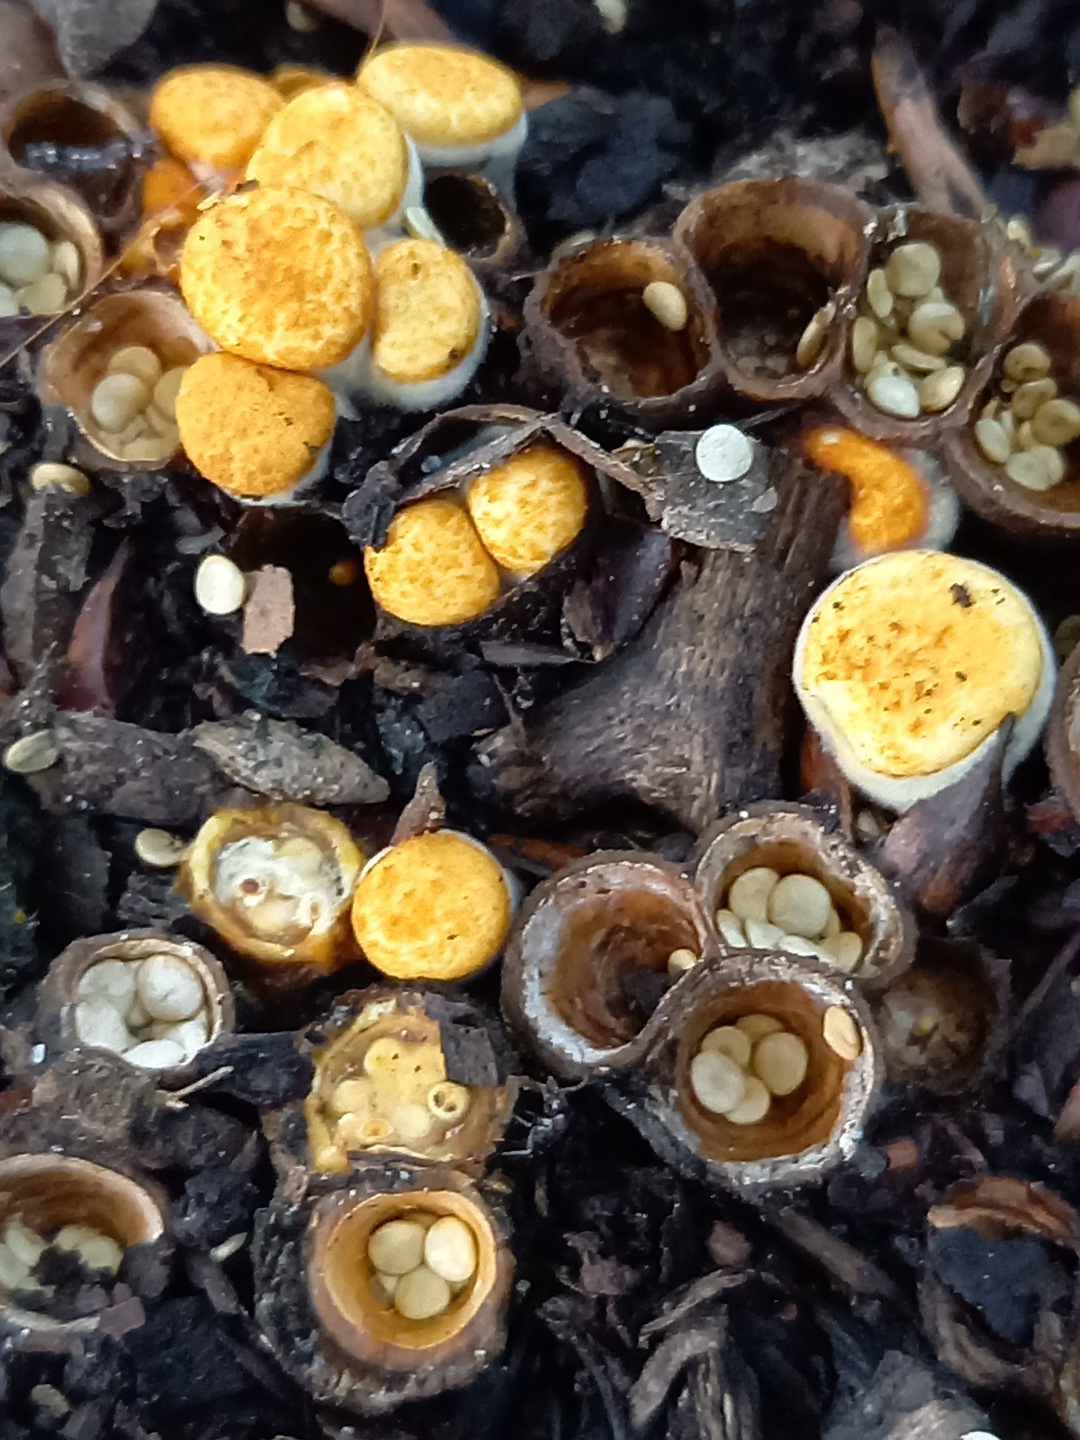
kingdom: Fungi
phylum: Basidiomycota
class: Agaricomycetes
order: Agaricales
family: Nidulariaceae
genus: Crucibulum
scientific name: Crucibulum crucibuliforme
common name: krukkesvamp
